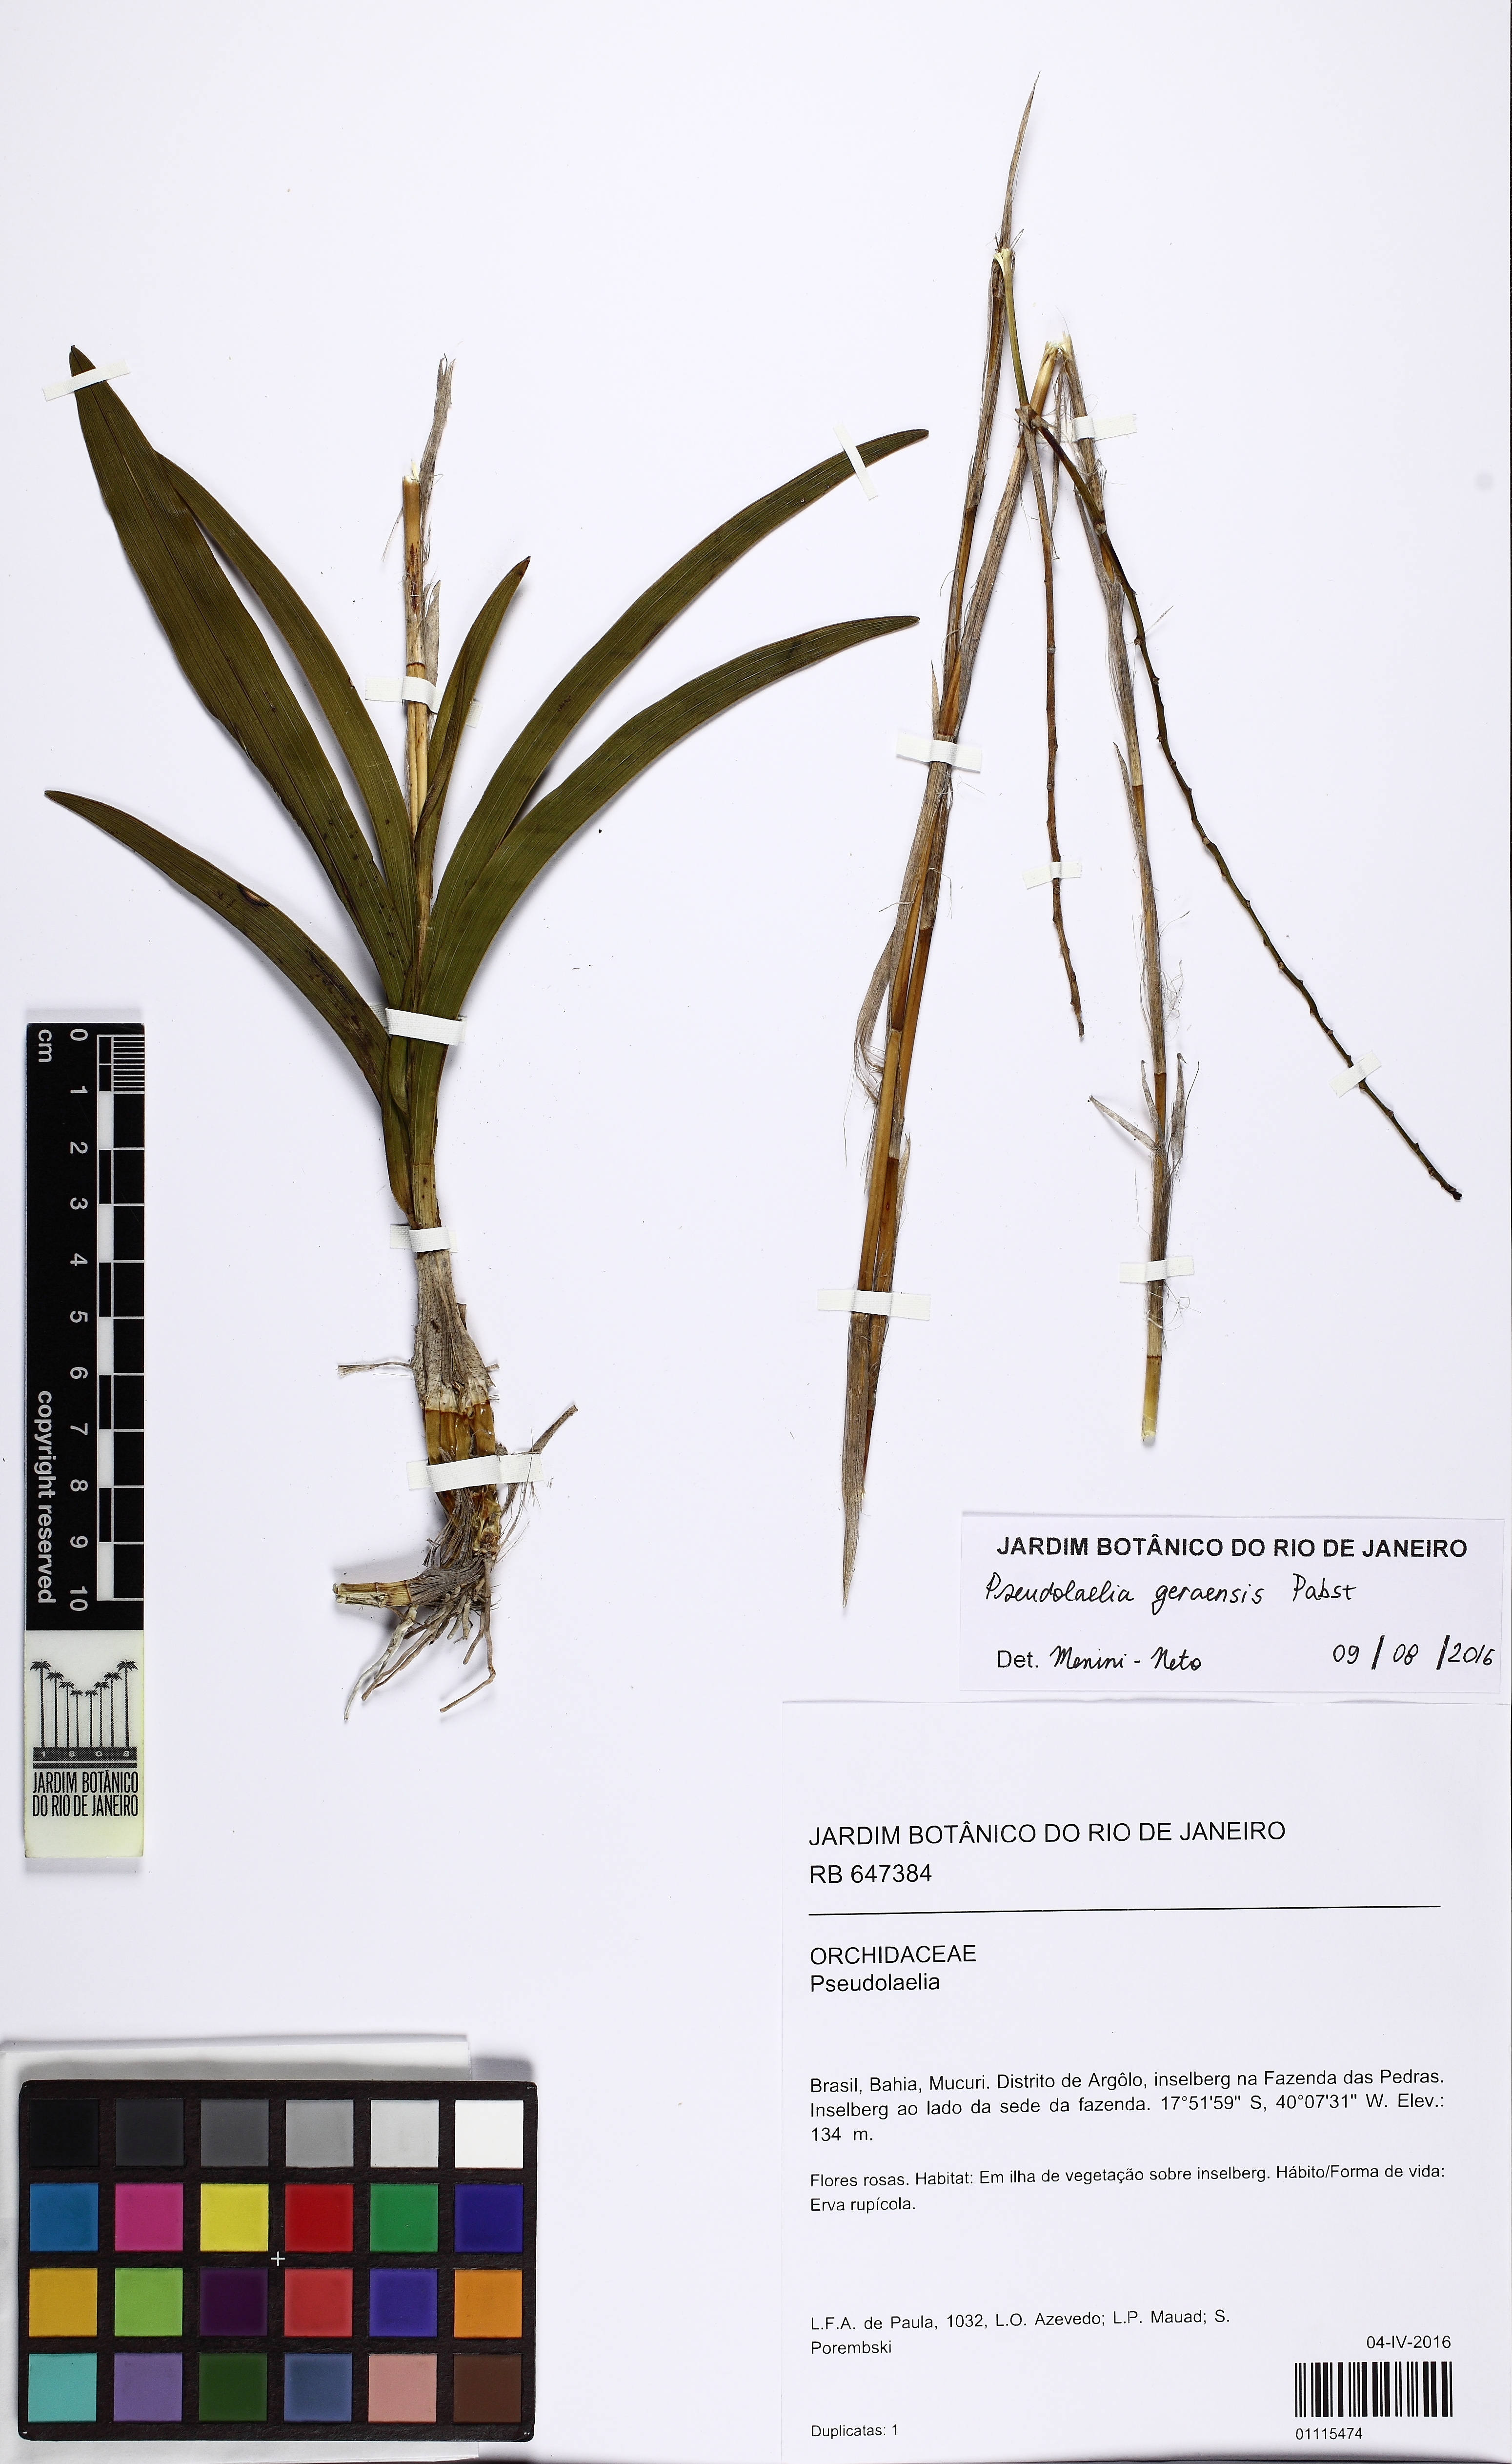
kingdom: Plantae
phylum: Tracheophyta
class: Liliopsida
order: Asparagales
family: Orchidaceae
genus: Pseudolaelia
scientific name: Pseudolaelia geraensis
